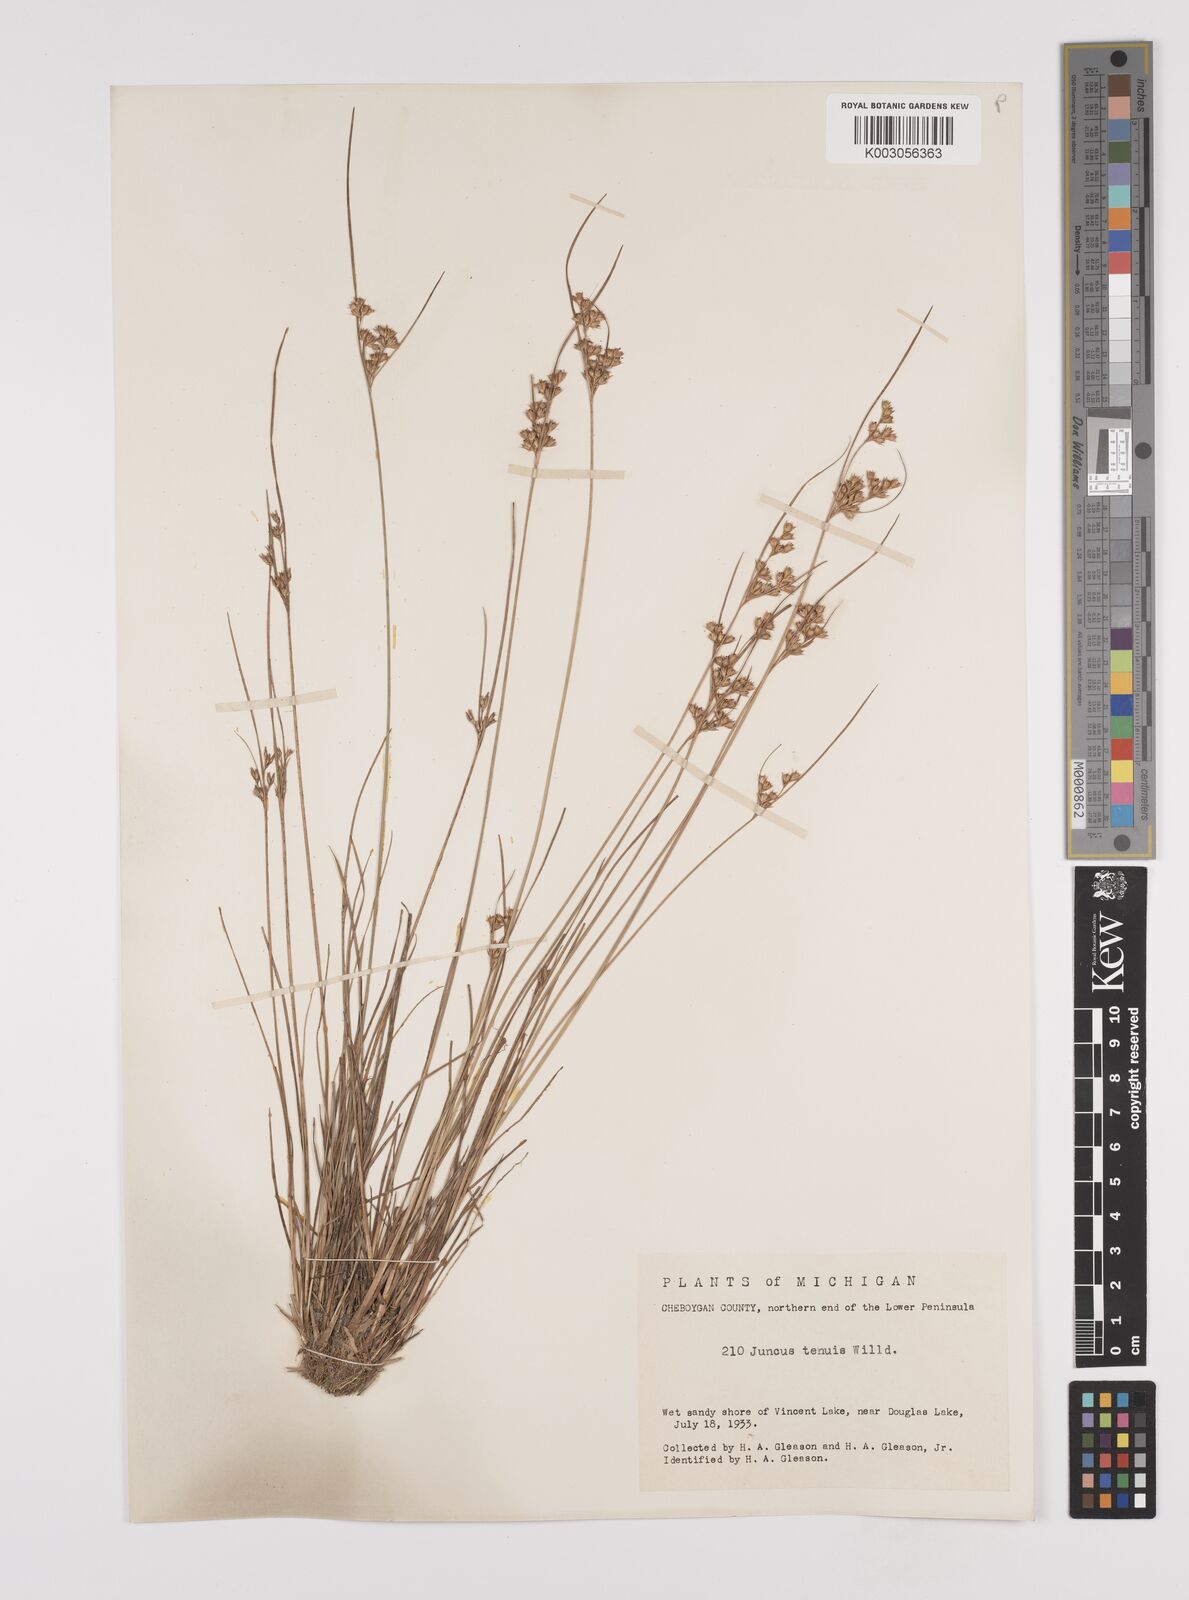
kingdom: Plantae
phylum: Tracheophyta
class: Liliopsida
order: Poales
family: Juncaceae
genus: Juncus
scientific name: Juncus tenuis
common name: Slender rush
